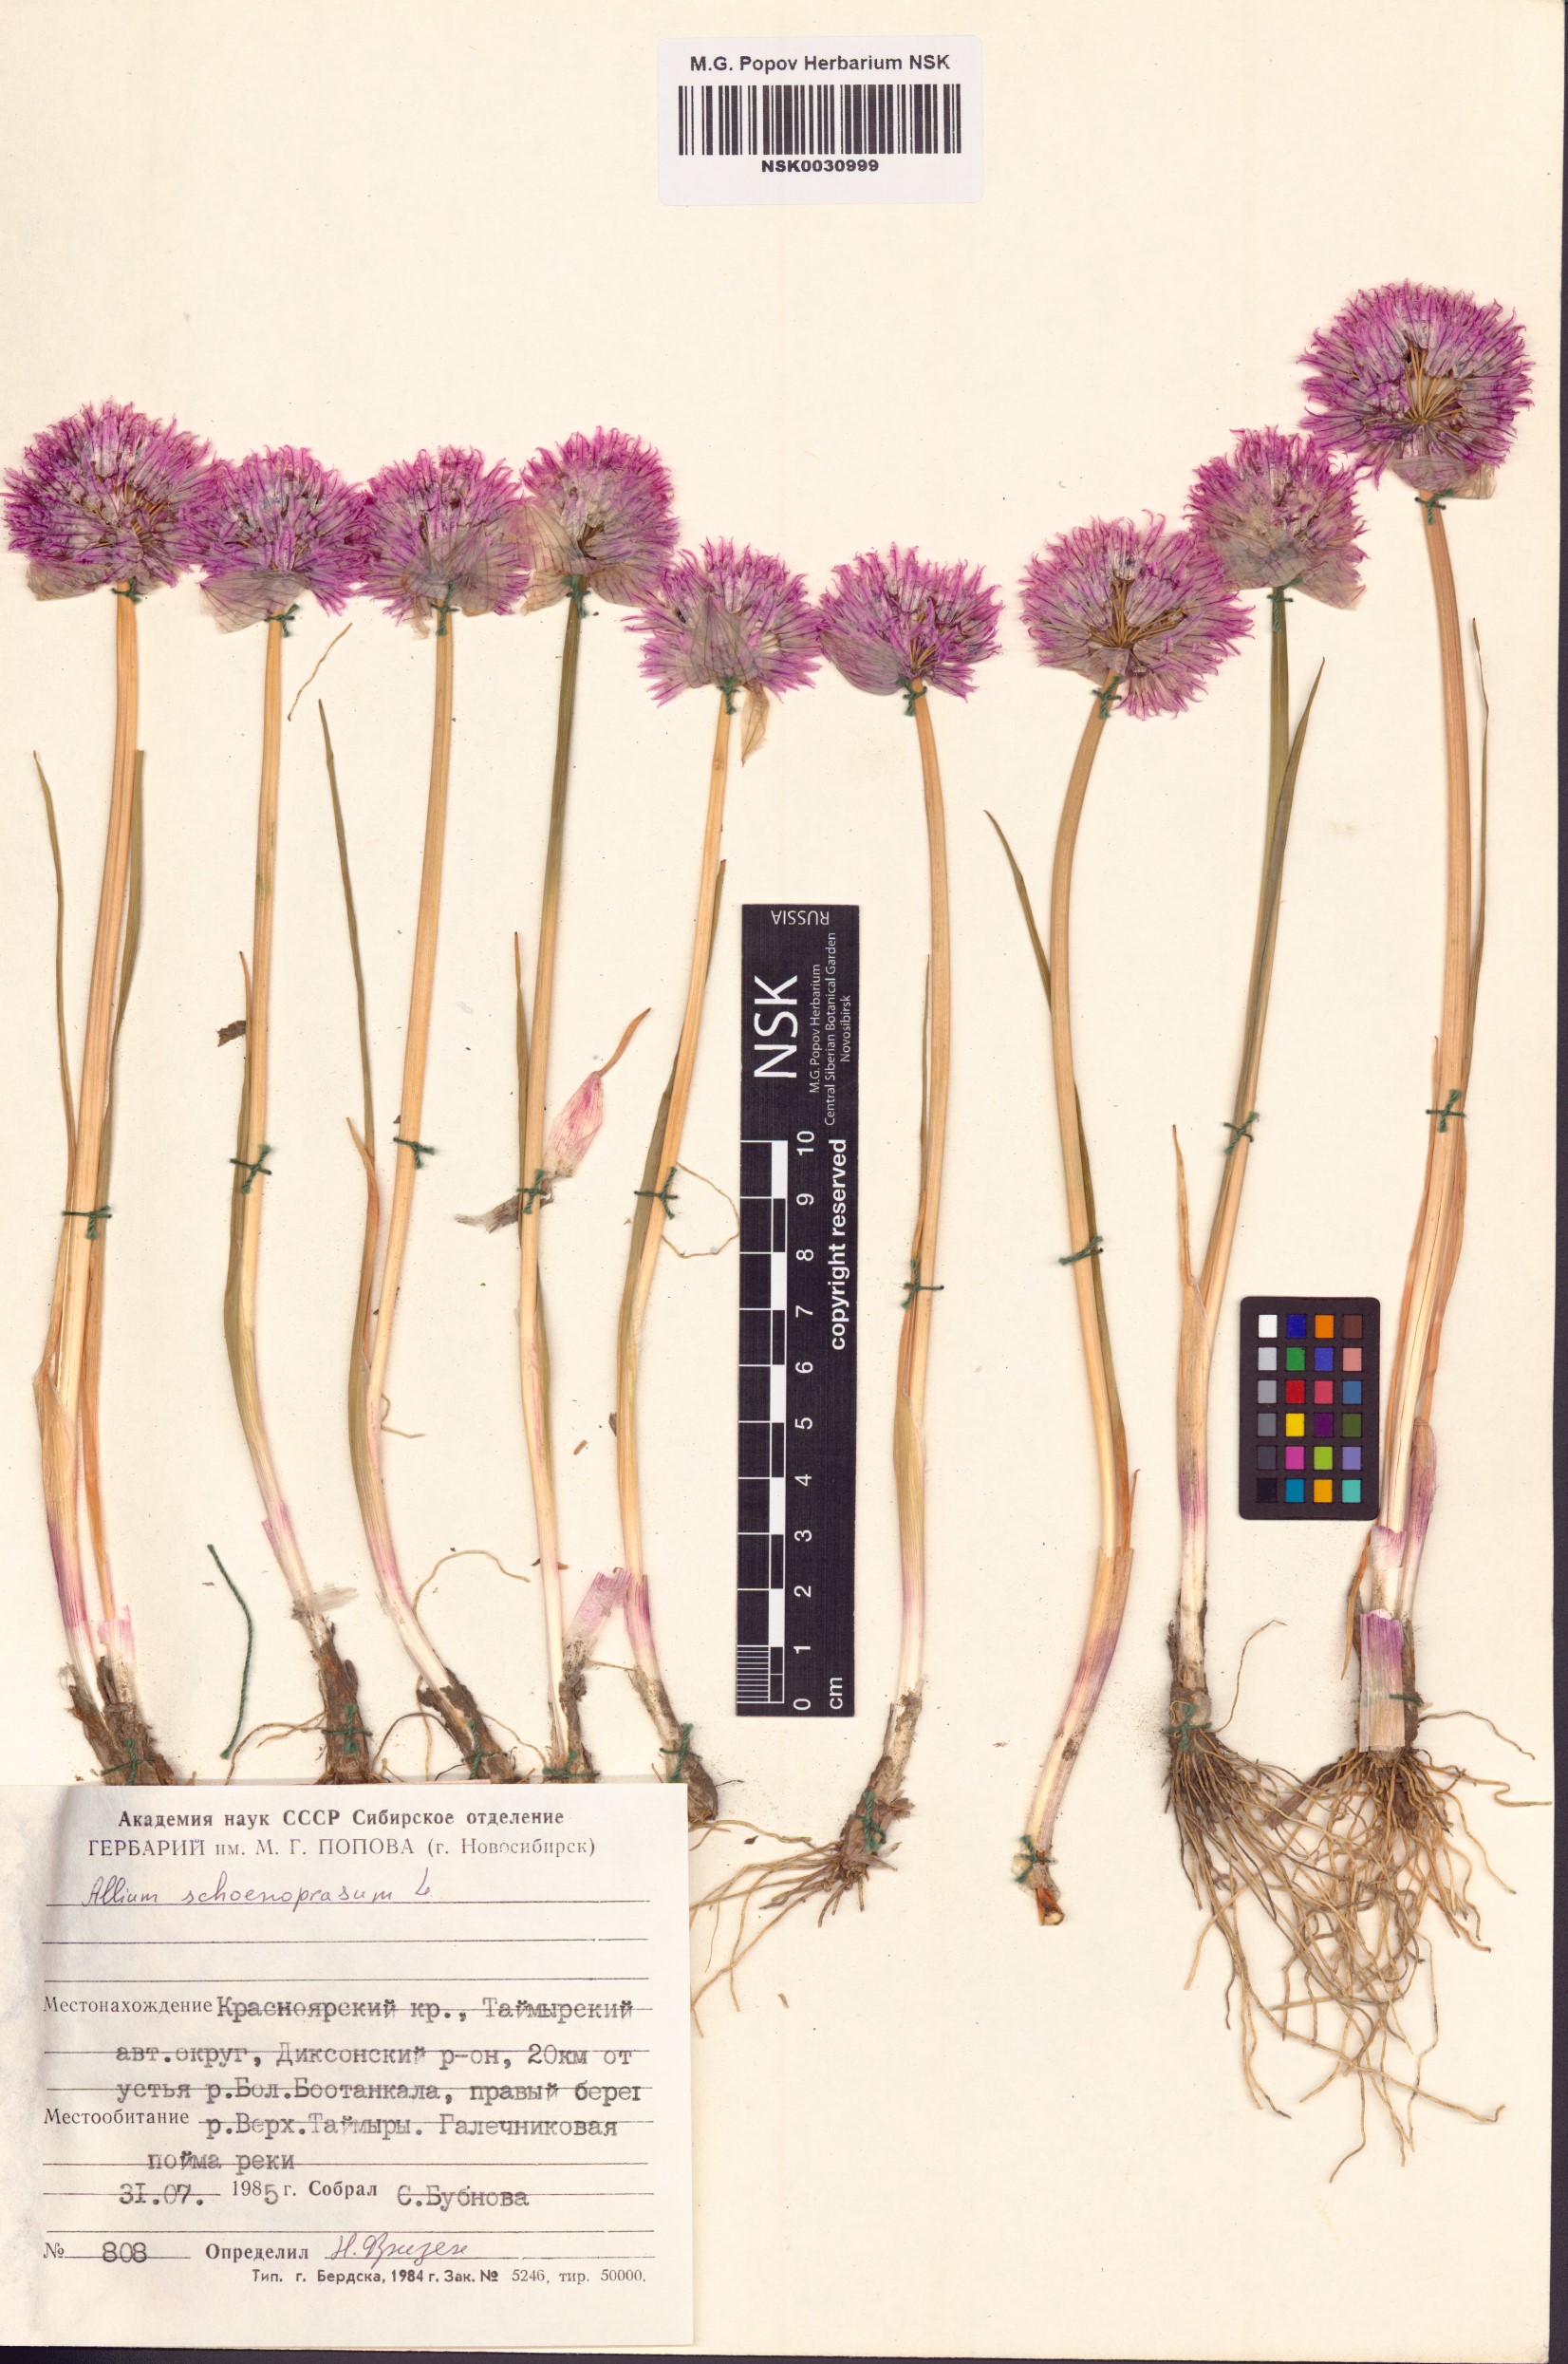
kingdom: Plantae
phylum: Tracheophyta
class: Liliopsida
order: Asparagales
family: Amaryllidaceae
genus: Allium
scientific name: Allium schoenoprasum
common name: Chives
